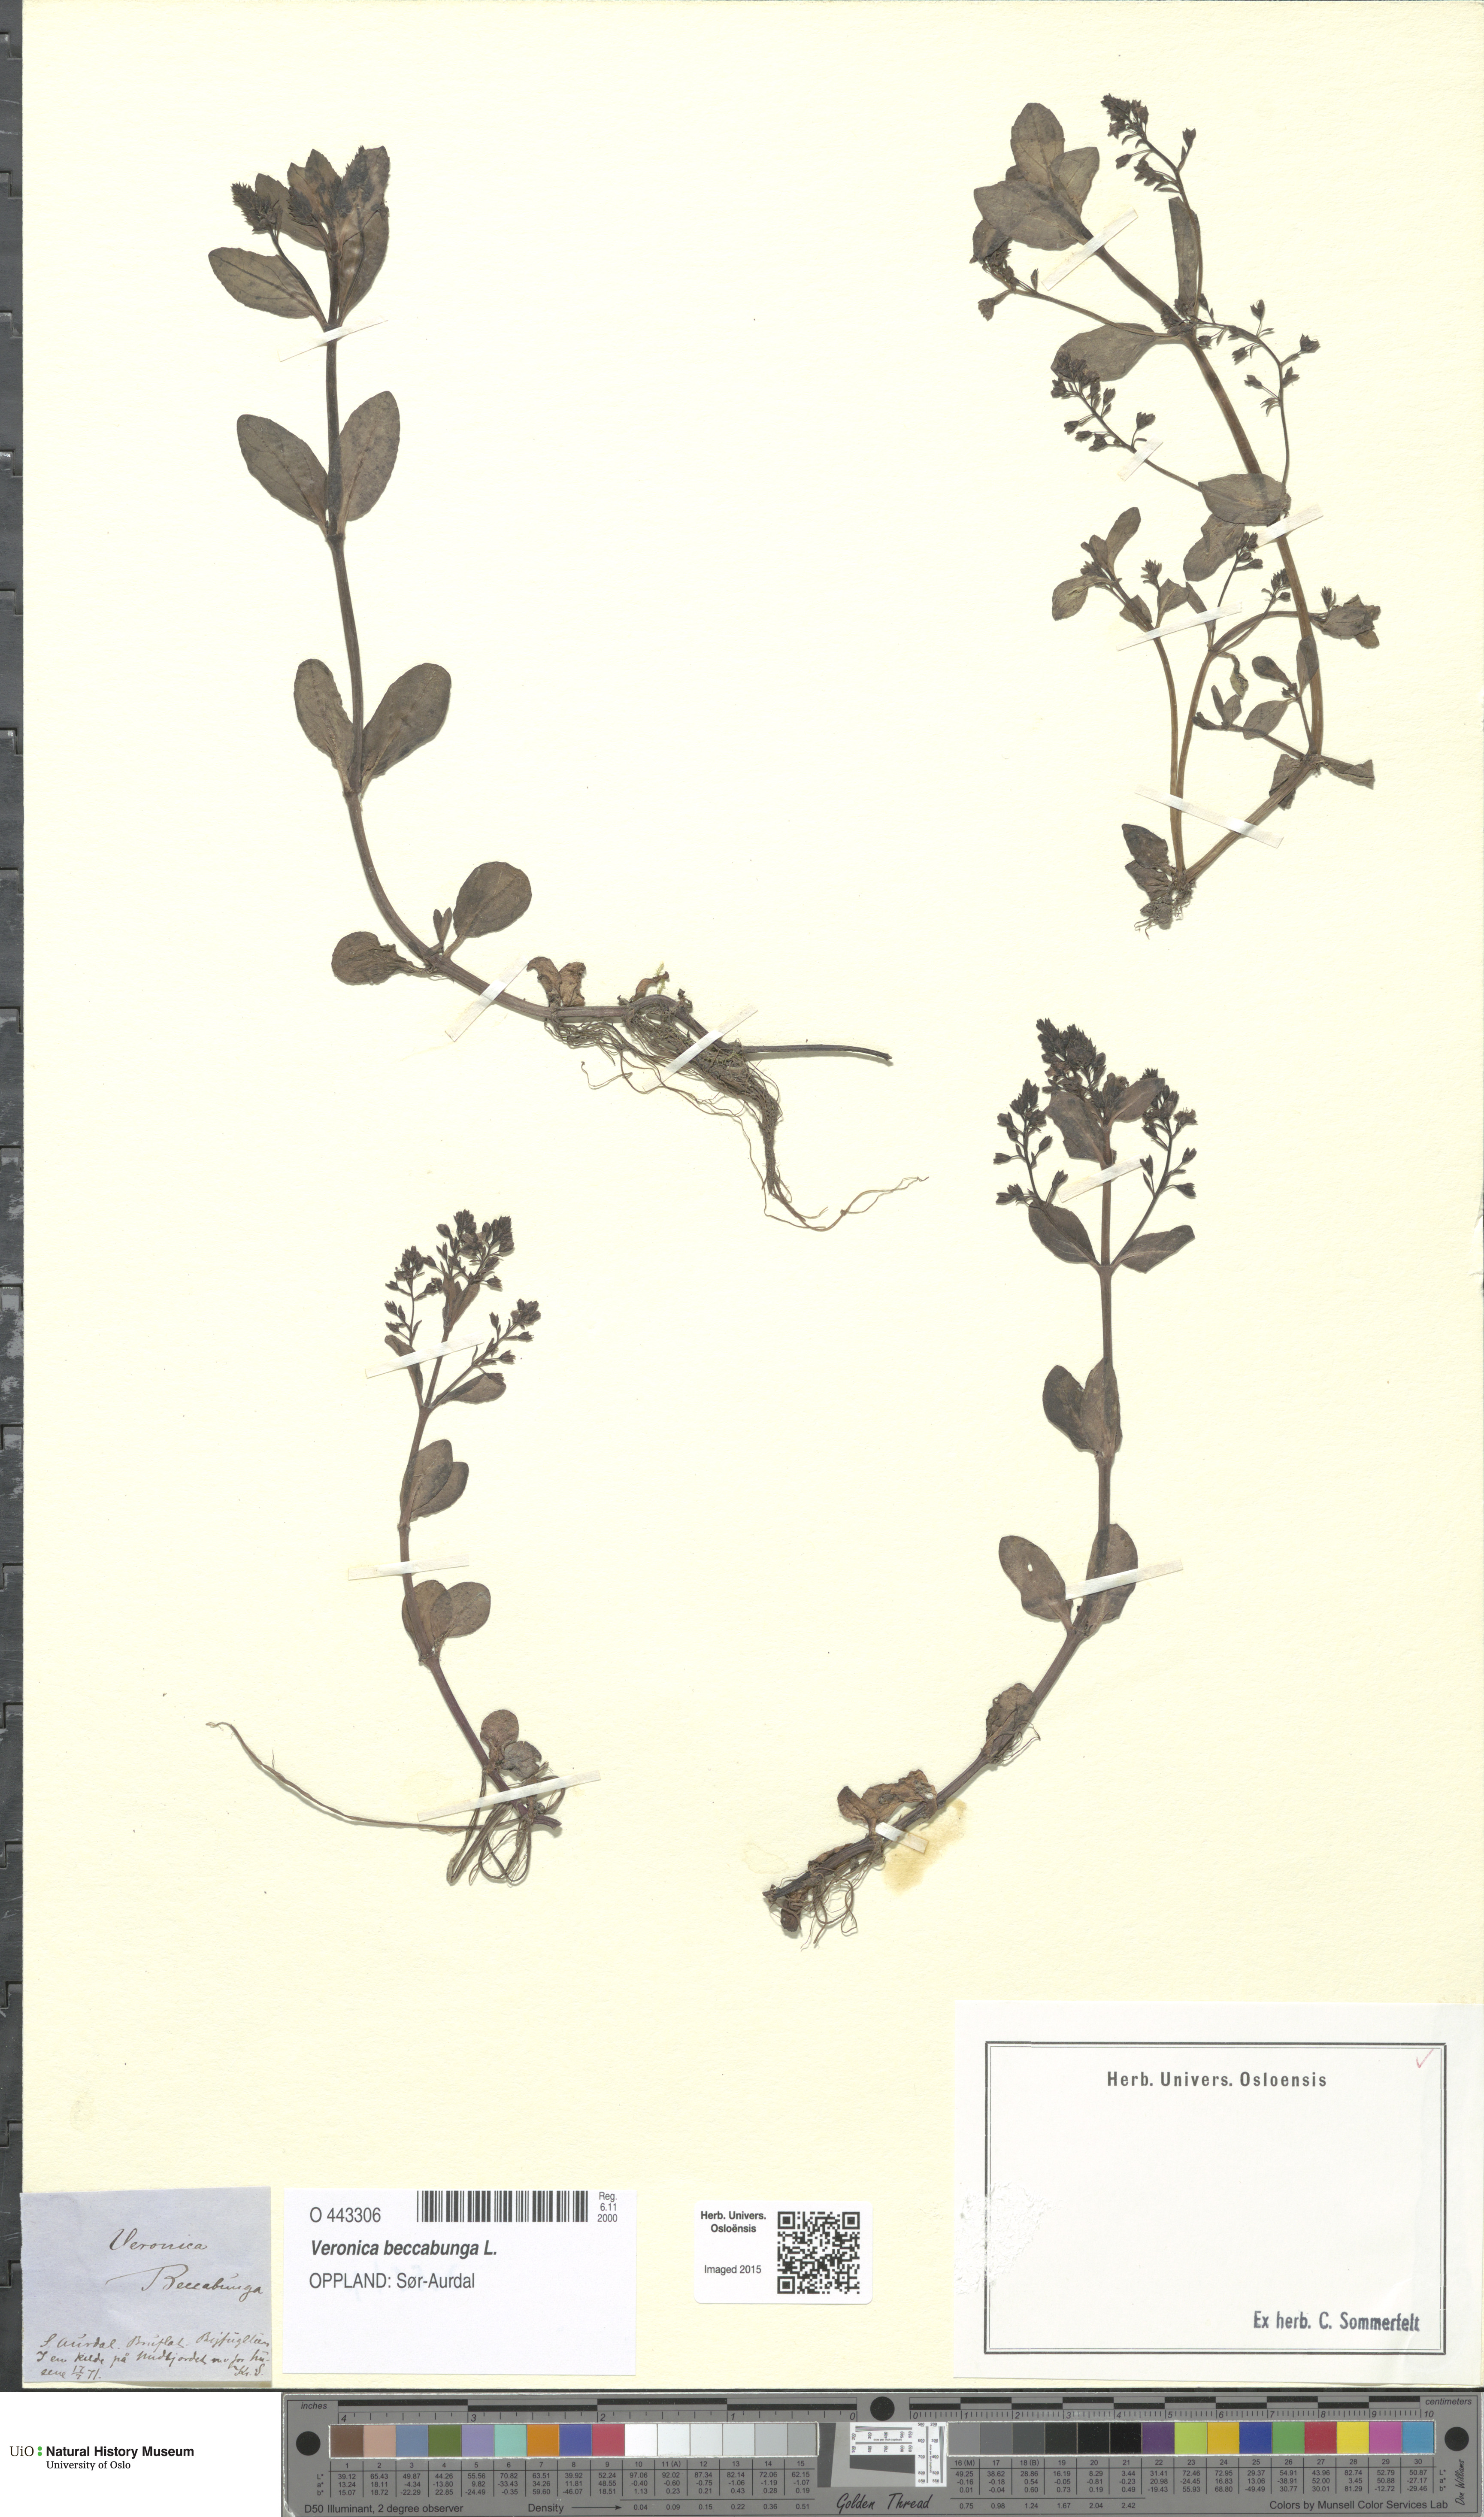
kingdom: Plantae
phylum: Tracheophyta
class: Magnoliopsida
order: Lamiales
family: Plantaginaceae
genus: Veronica
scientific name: Veronica beccabunga
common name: Brooklime
